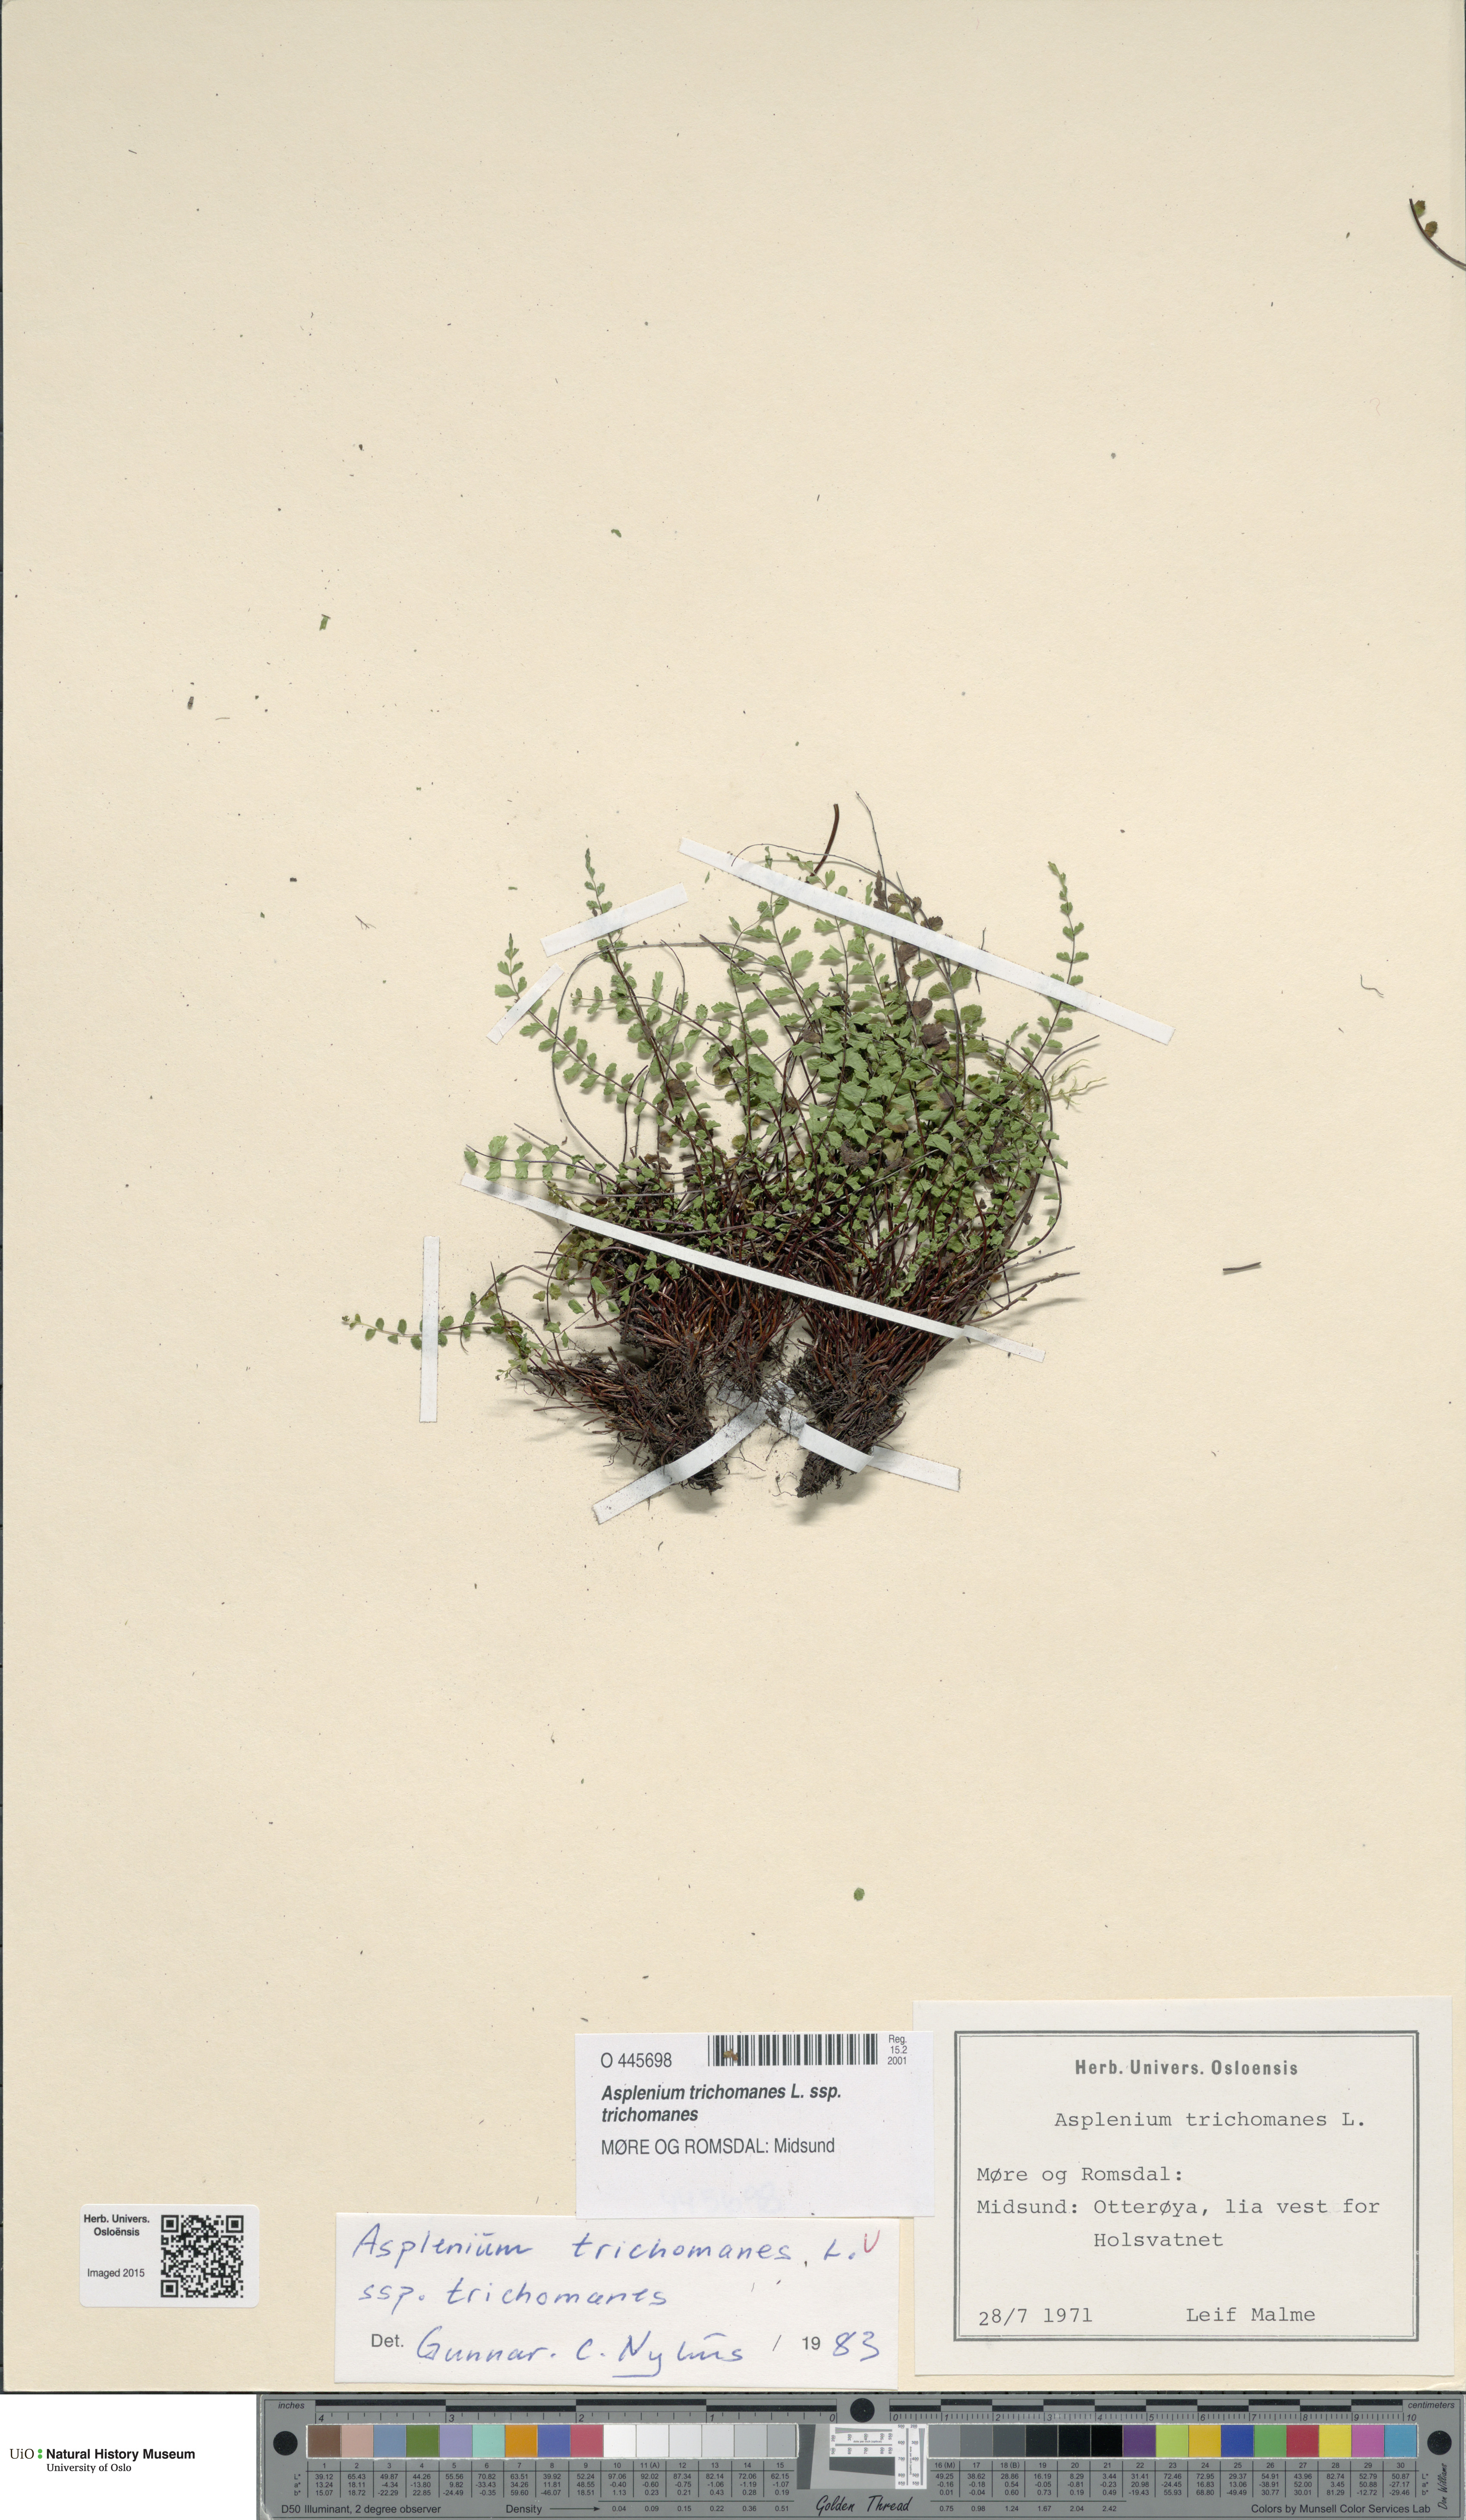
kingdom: Plantae
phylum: Tracheophyta
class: Polypodiopsida
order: Polypodiales
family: Aspleniaceae
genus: Asplenium
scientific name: Asplenium trichomanes
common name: Maidenhair spleenwort
